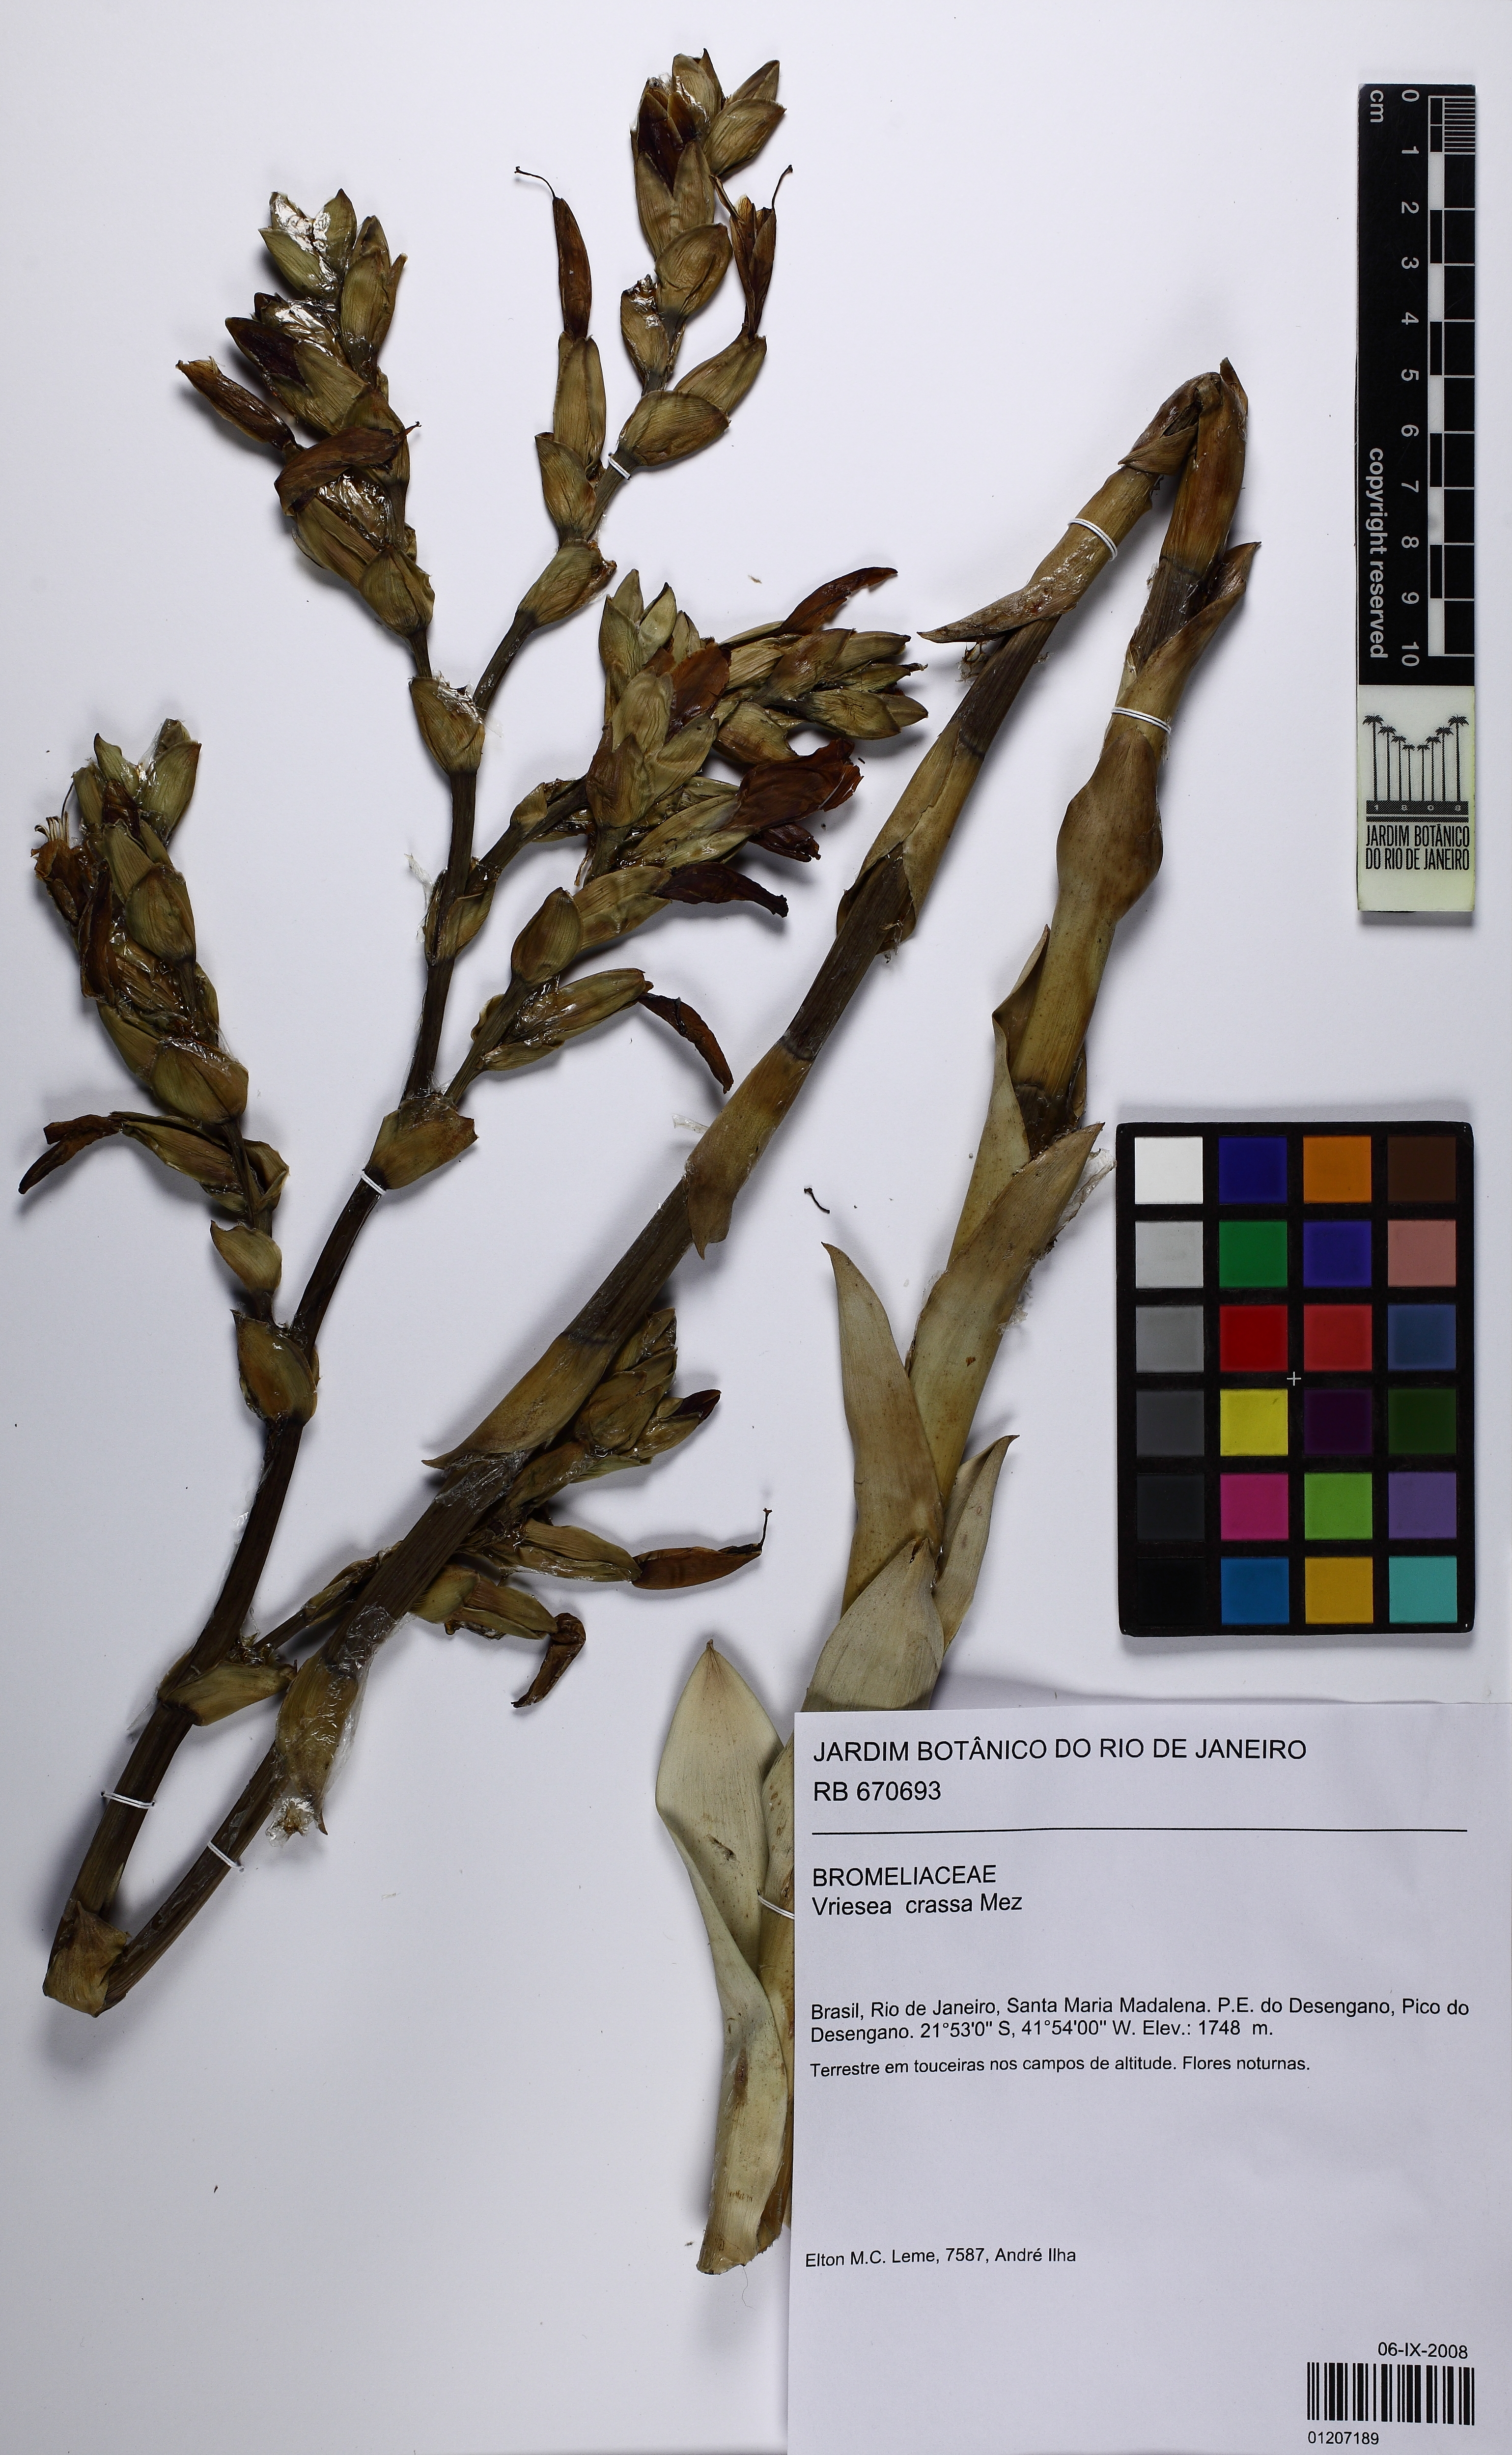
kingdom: Plantae
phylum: Tracheophyta
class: Liliopsida
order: Poales
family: Bromeliaceae
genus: Vriesea
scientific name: Vriesea crassa
